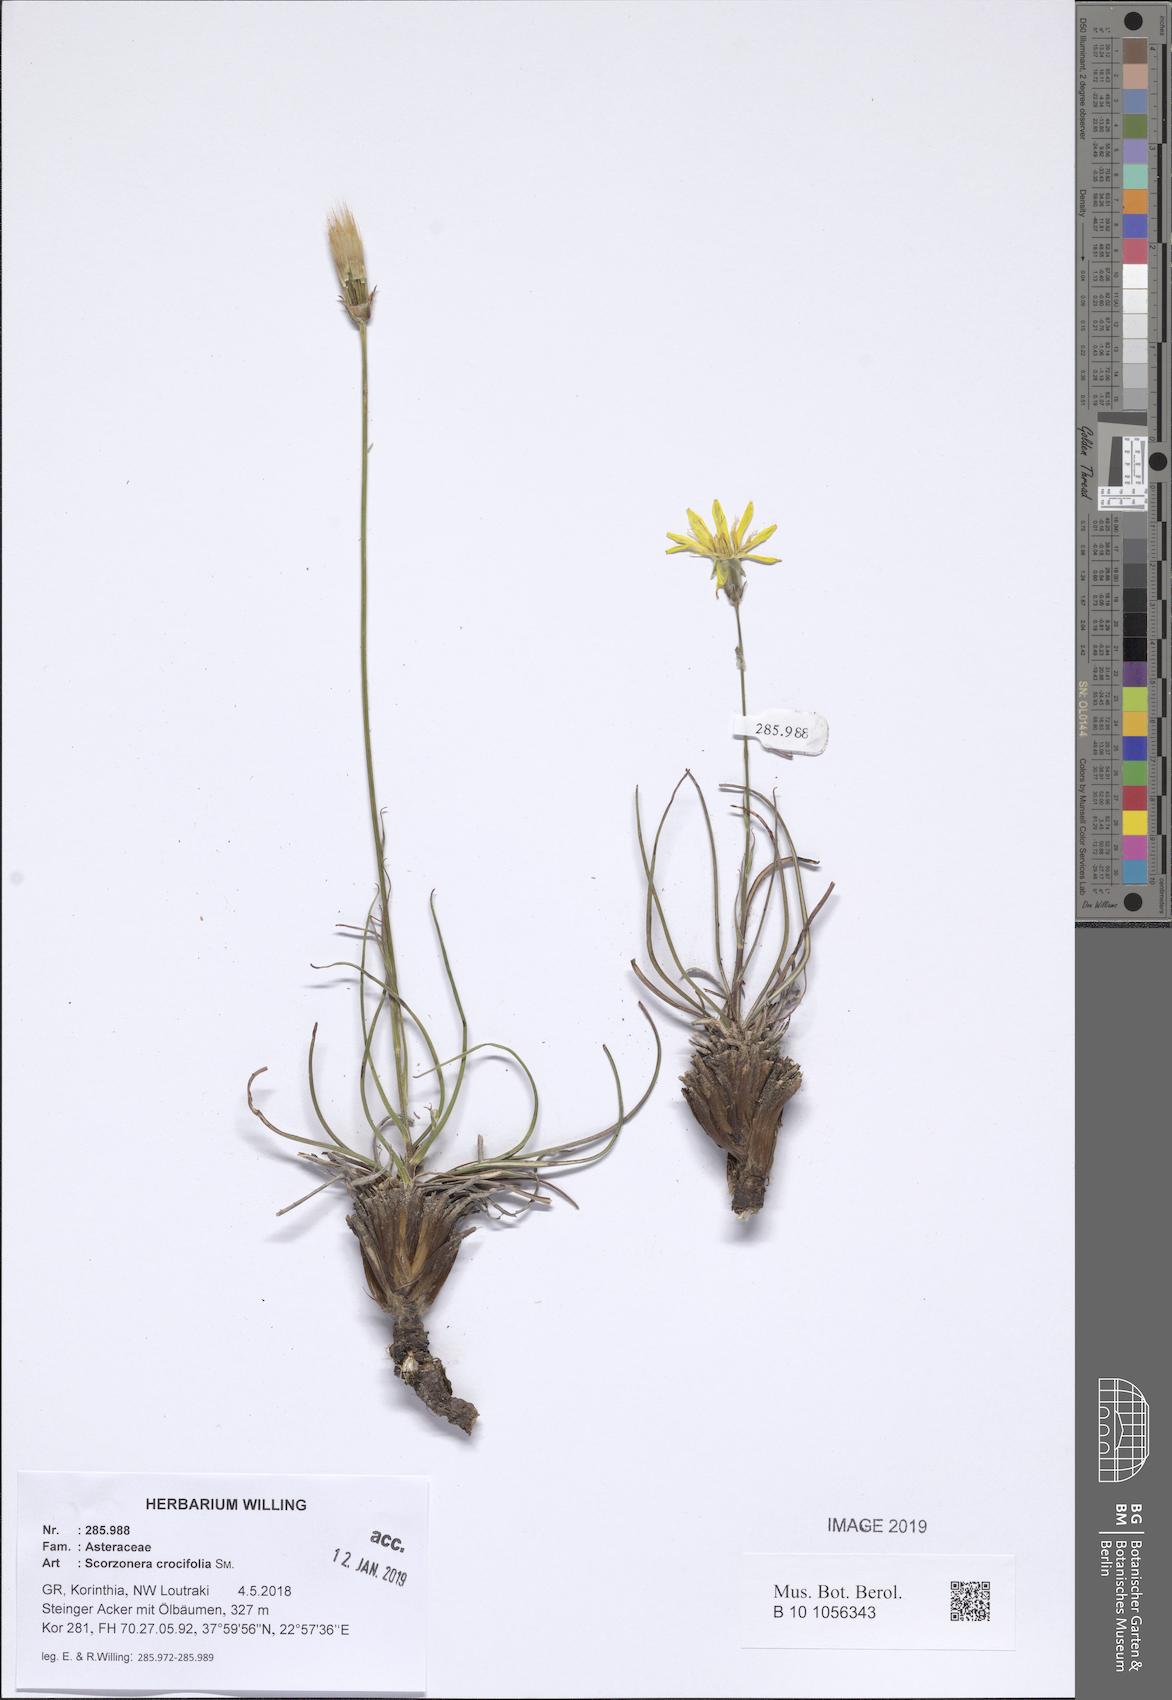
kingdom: Plantae
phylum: Tracheophyta
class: Magnoliopsida
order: Asterales
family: Asteraceae
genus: Pseudopodospermum
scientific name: Pseudopodospermum crocifolium
